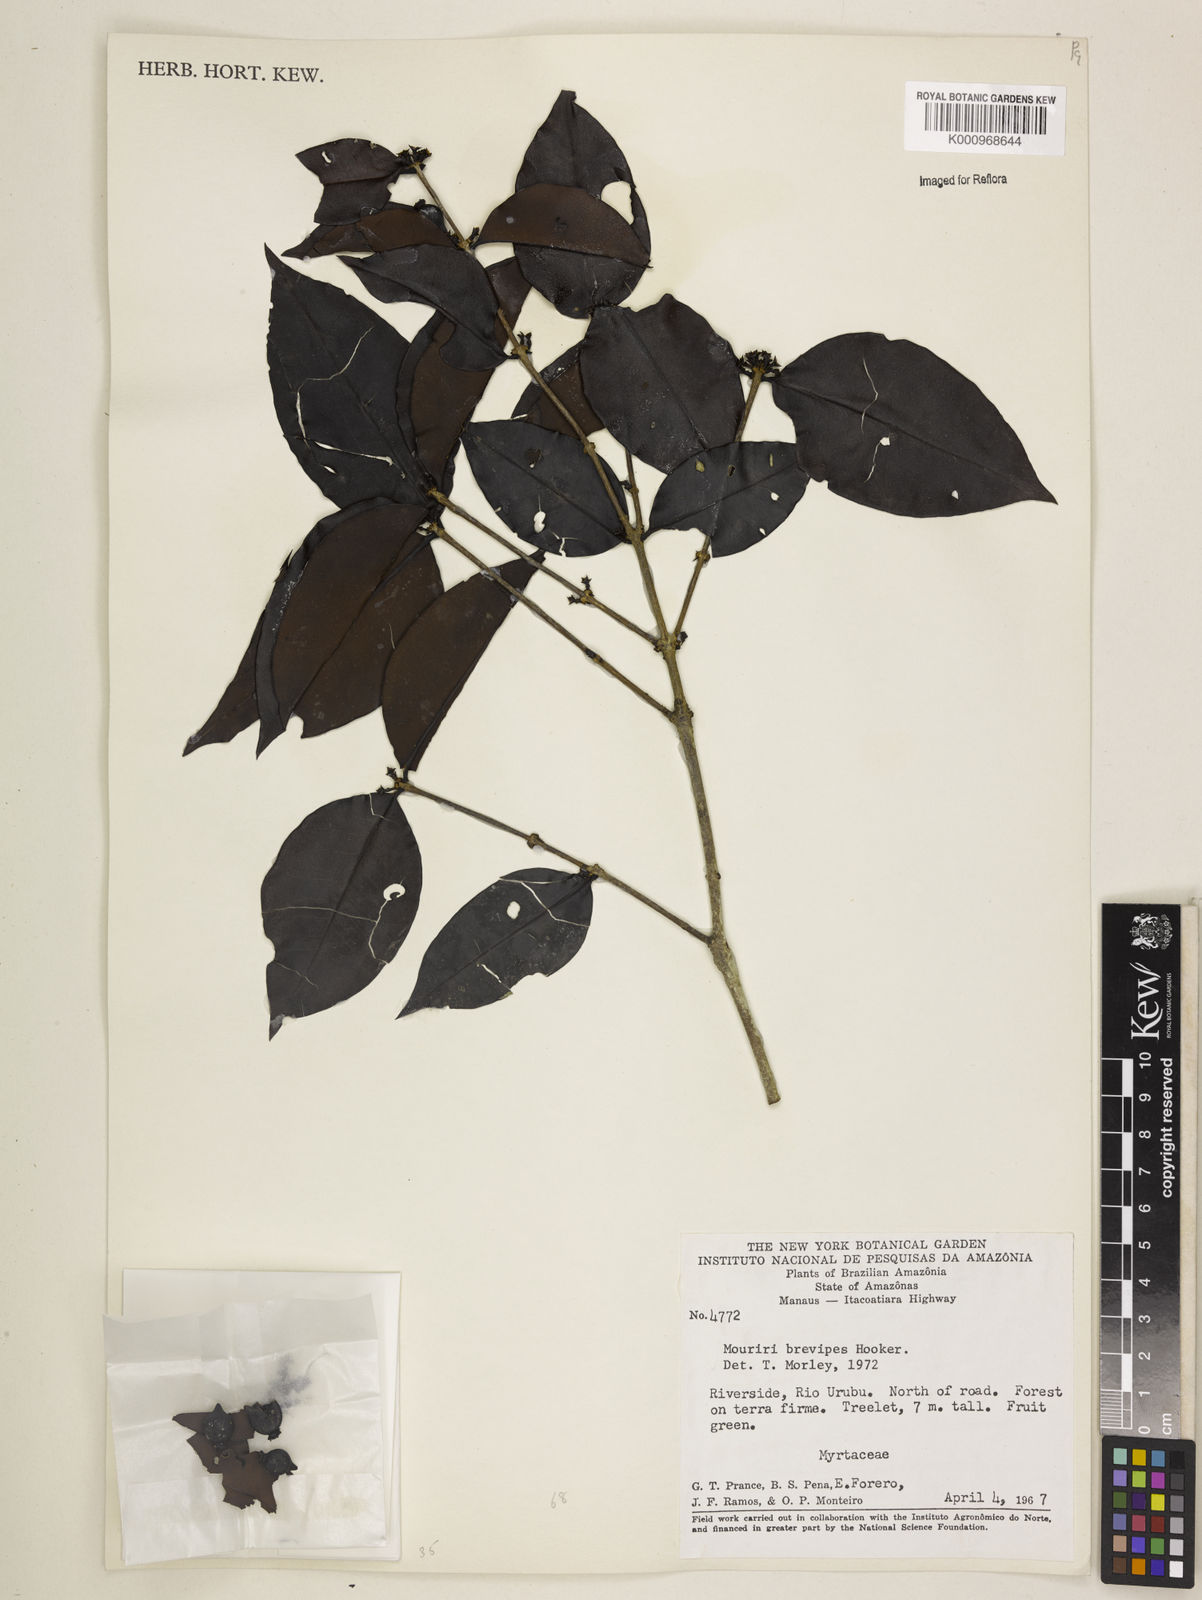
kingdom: Plantae
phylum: Tracheophyta
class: Magnoliopsida
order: Myrtales
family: Melastomataceae
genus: Mouriri
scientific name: Mouriri
